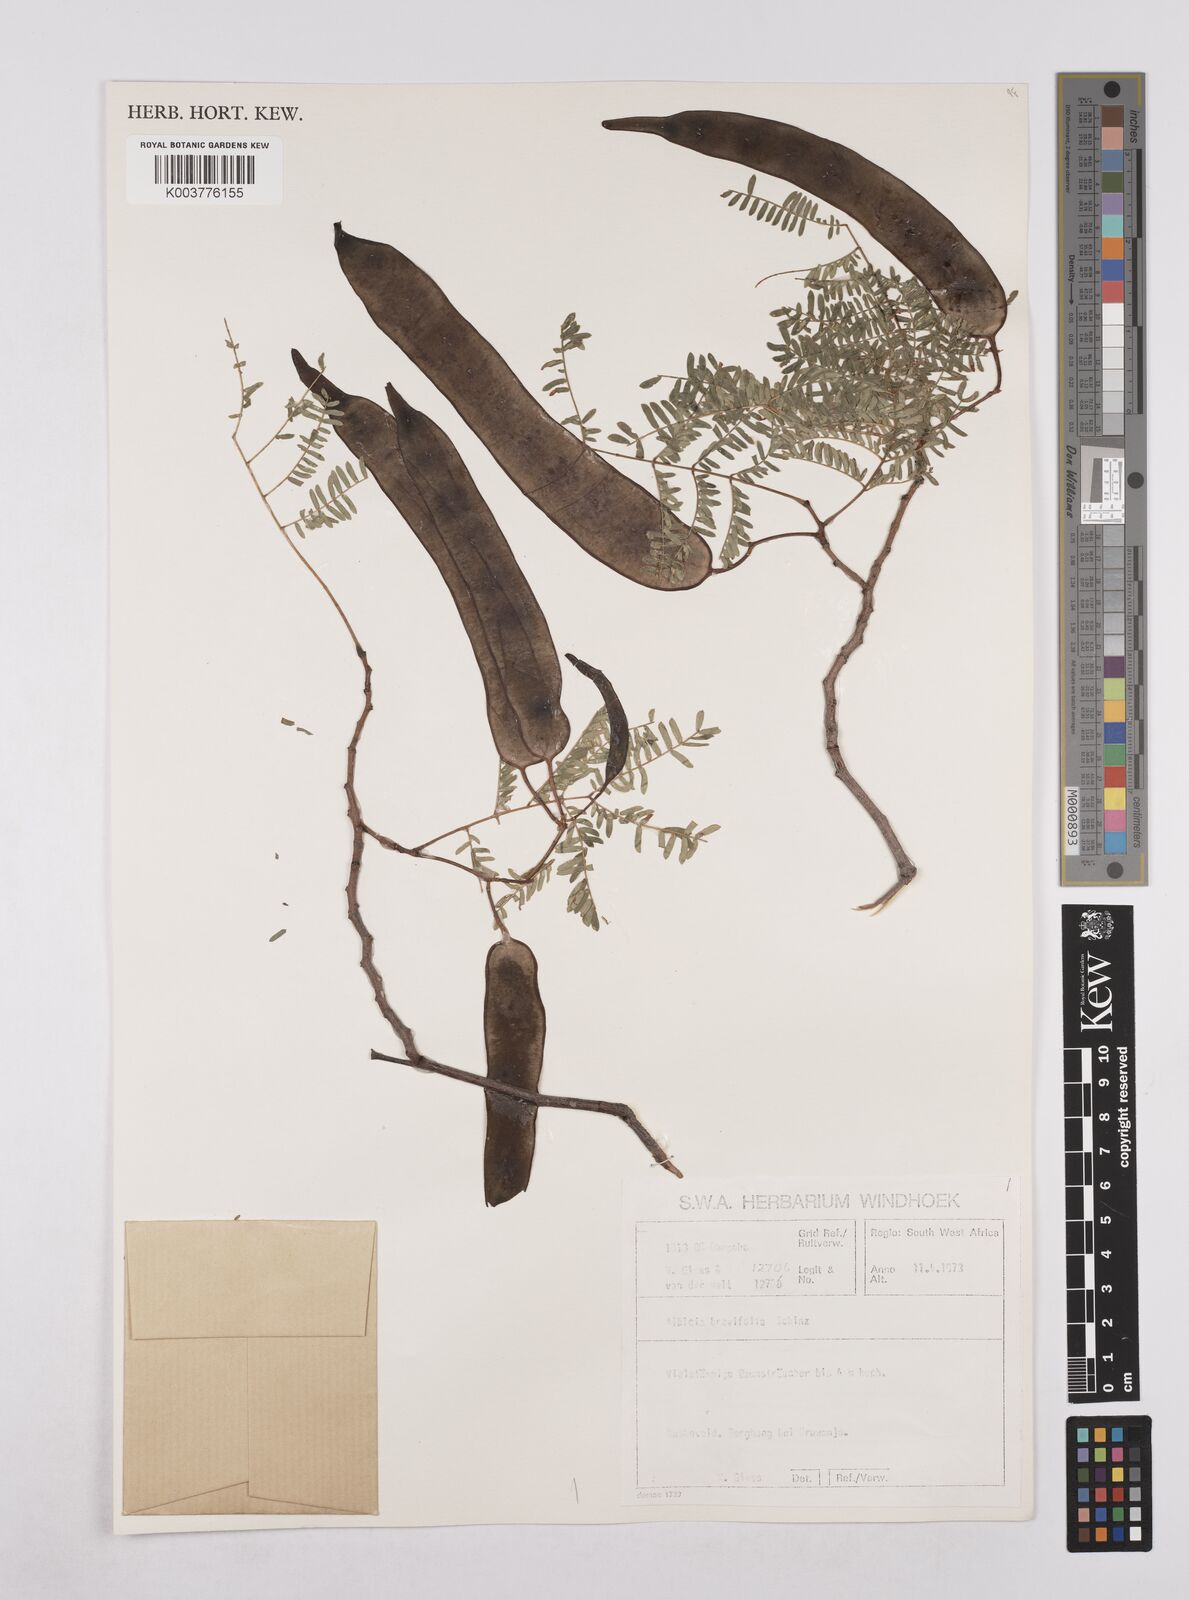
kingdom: Plantae
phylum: Tracheophyta
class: Magnoliopsida
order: Fabales
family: Fabaceae
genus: Albizia
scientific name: Albizia brevifolia
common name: Rock false-thorn
